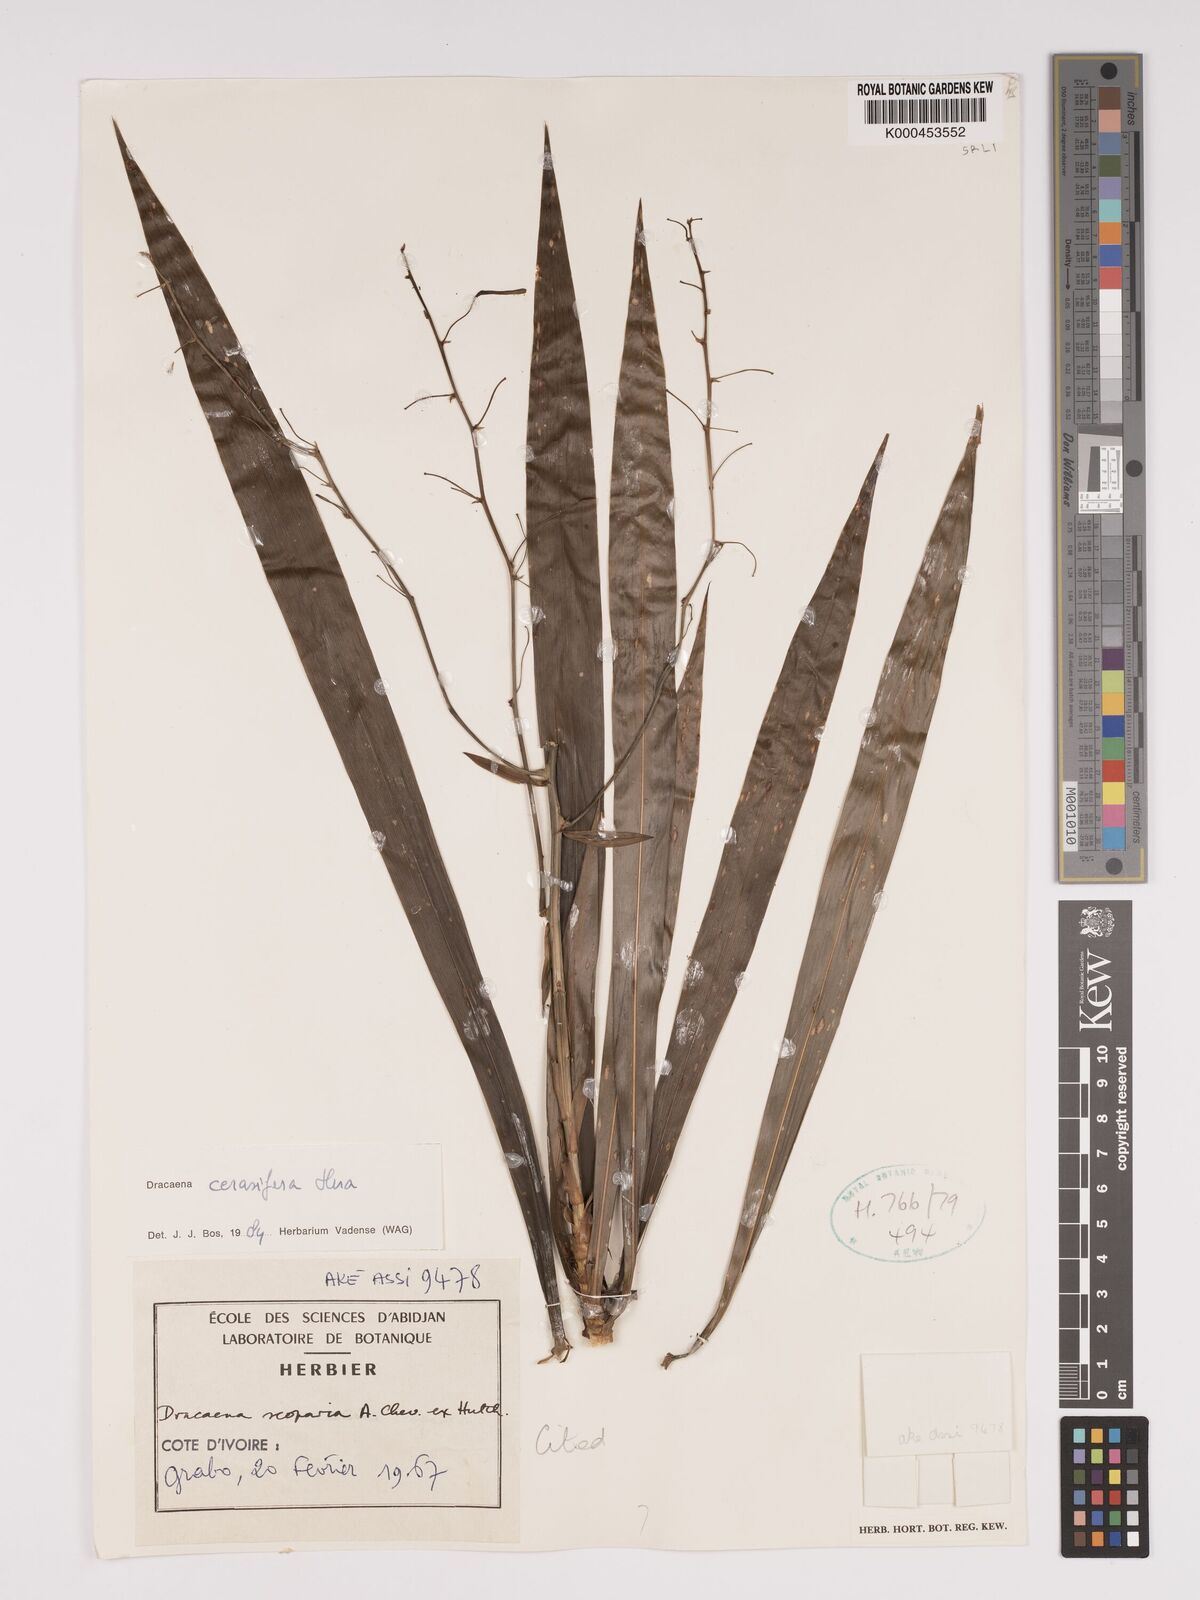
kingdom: Plantae
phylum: Tracheophyta
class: Liliopsida
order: Asparagales
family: Asparagaceae
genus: Dracaena
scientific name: Dracaena cerasifera
